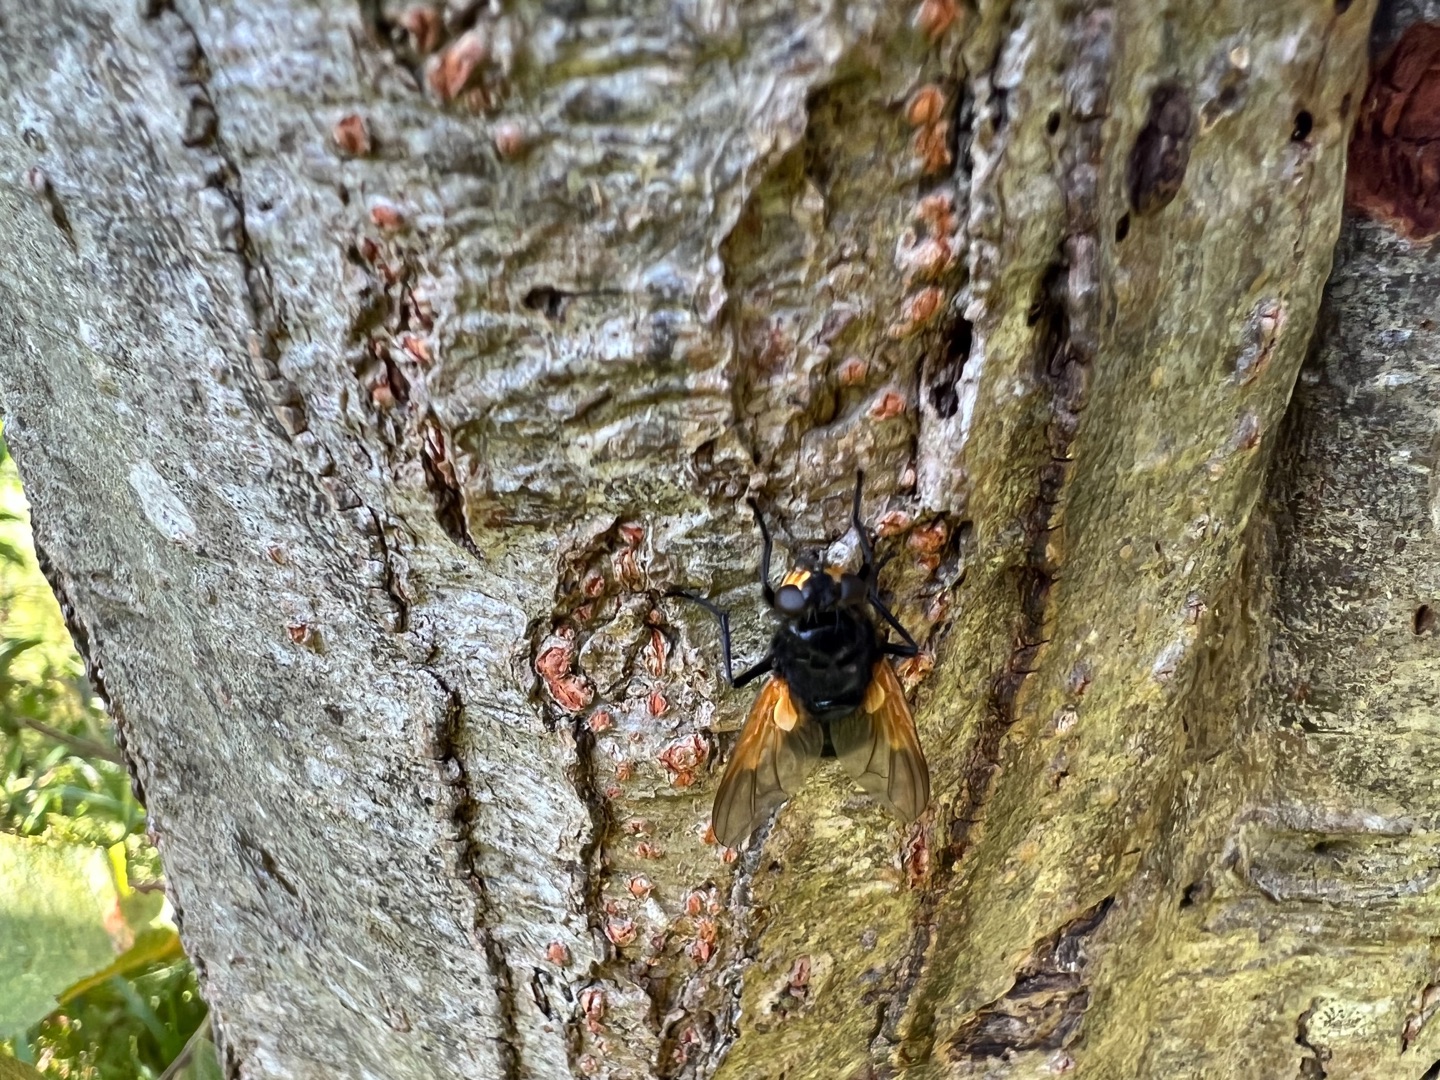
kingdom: Animalia
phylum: Arthropoda
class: Insecta
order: Diptera
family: Muscidae
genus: Mesembrina
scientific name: Mesembrina meridiana
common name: Gulvinget flue
